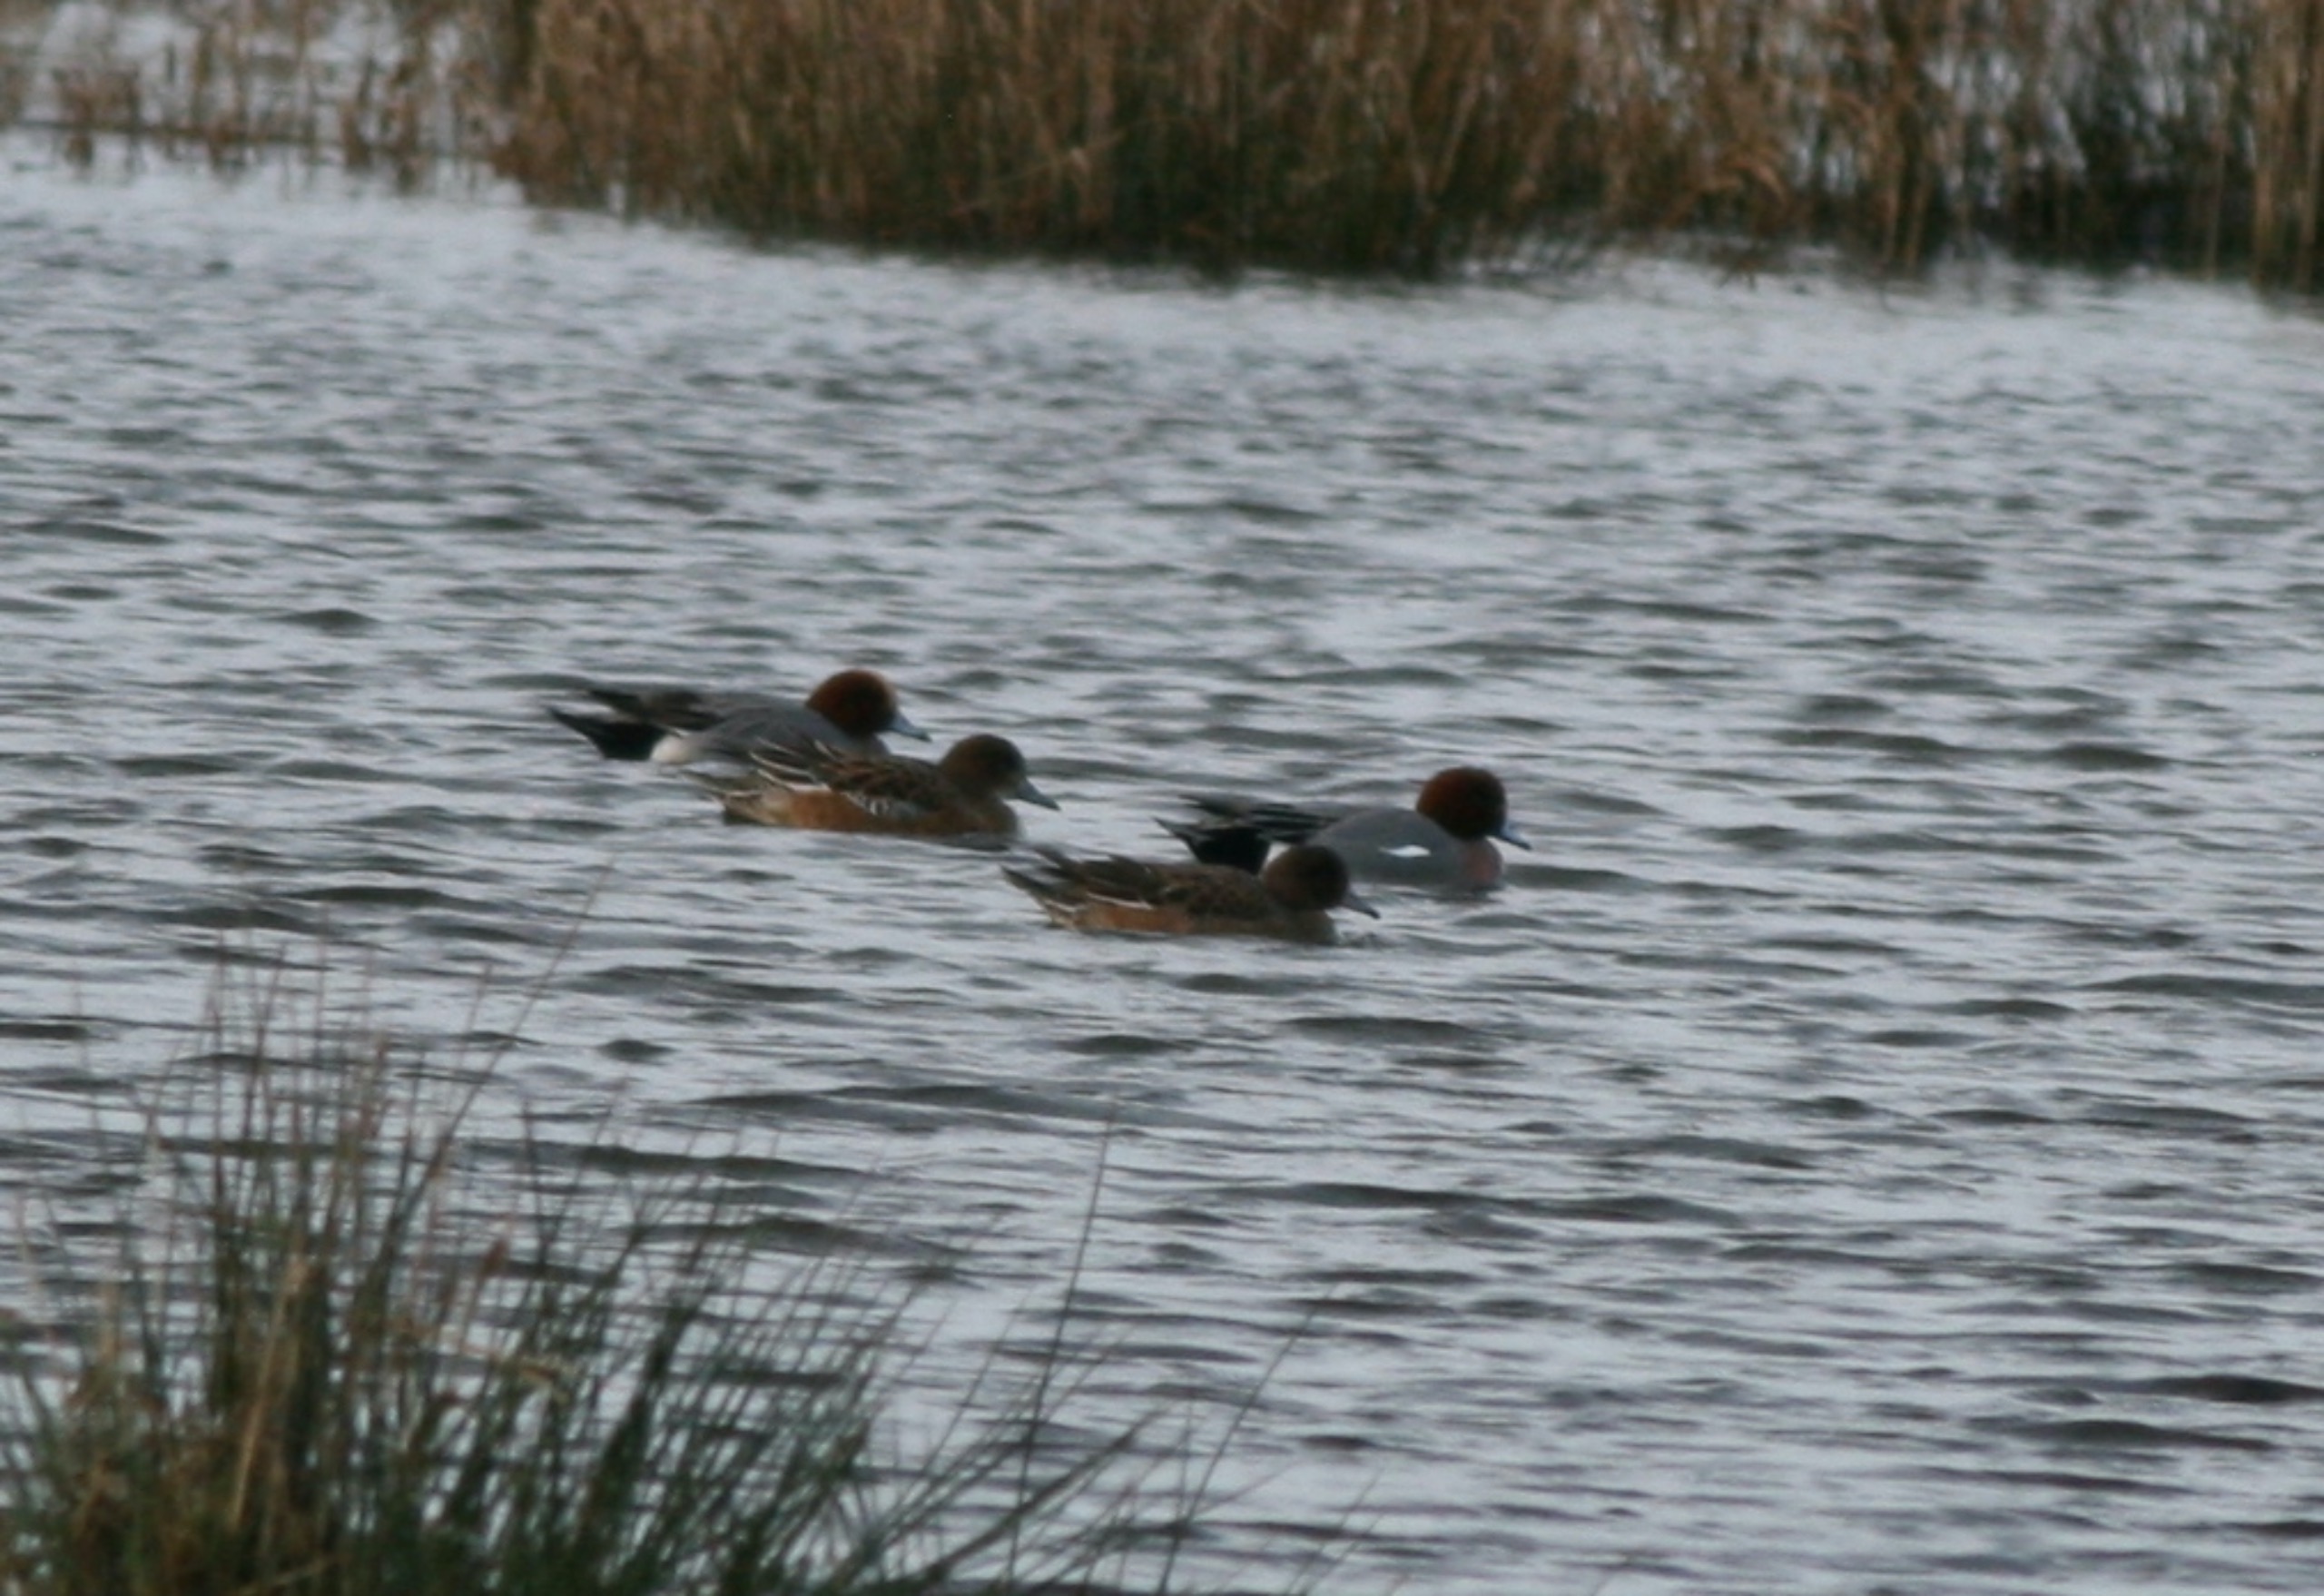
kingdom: Animalia
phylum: Chordata
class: Aves
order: Anseriformes
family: Anatidae
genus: Mareca
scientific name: Mareca penelope
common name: Pibeand
